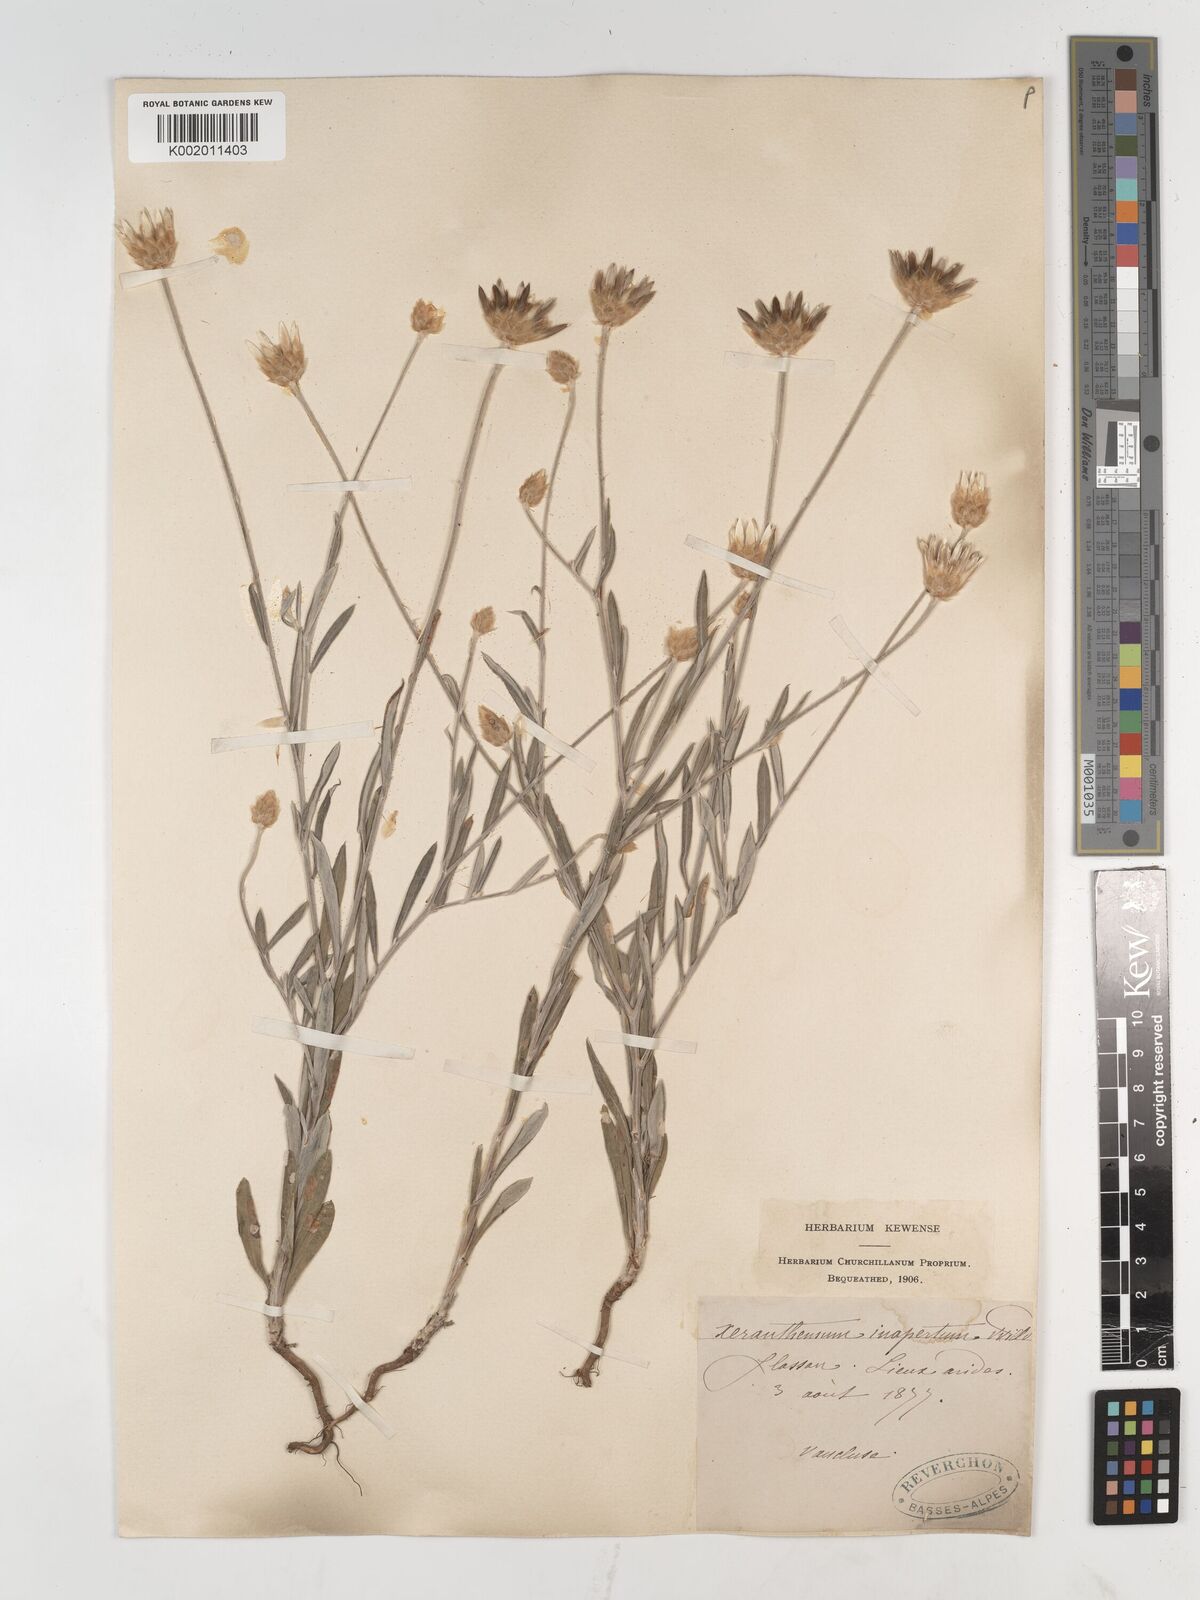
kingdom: Plantae
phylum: Tracheophyta
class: Magnoliopsida
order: Asterales
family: Asteraceae
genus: Xeranthemum
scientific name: Xeranthemum inapertum
